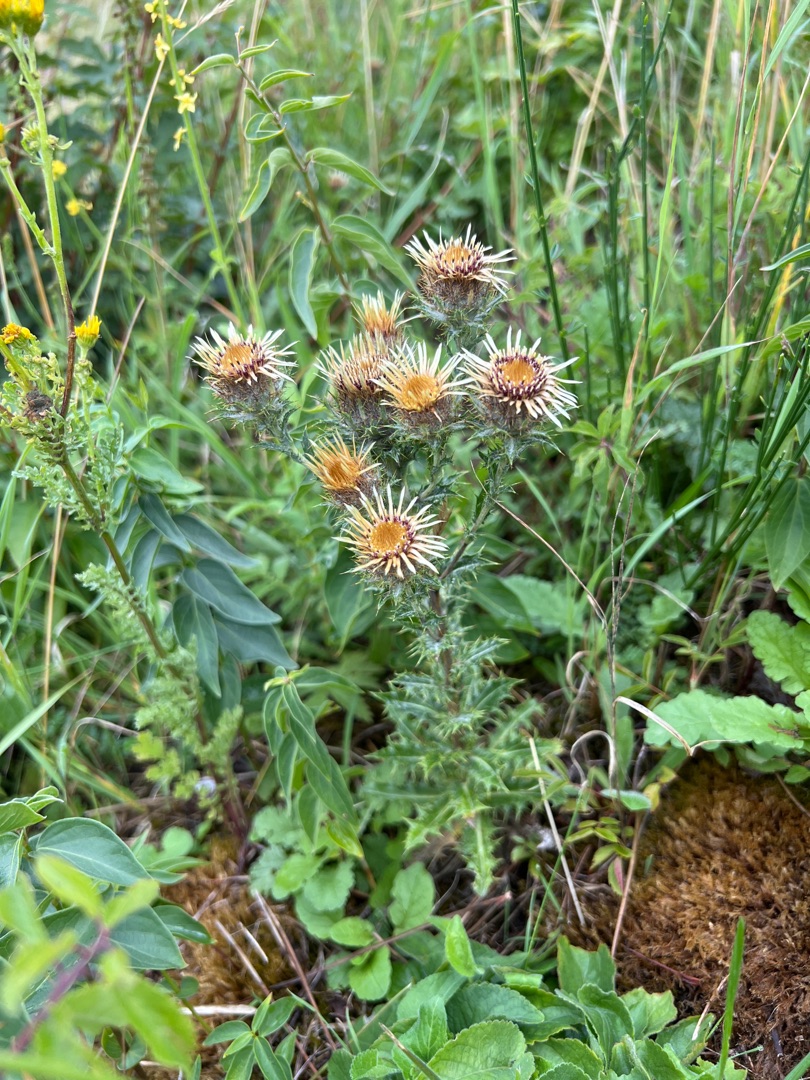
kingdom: Plantae
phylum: Tracheophyta
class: Magnoliopsida
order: Asterales
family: Asteraceae
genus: Carlina
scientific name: Carlina vulgaris
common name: Bakketidsel (underart)
